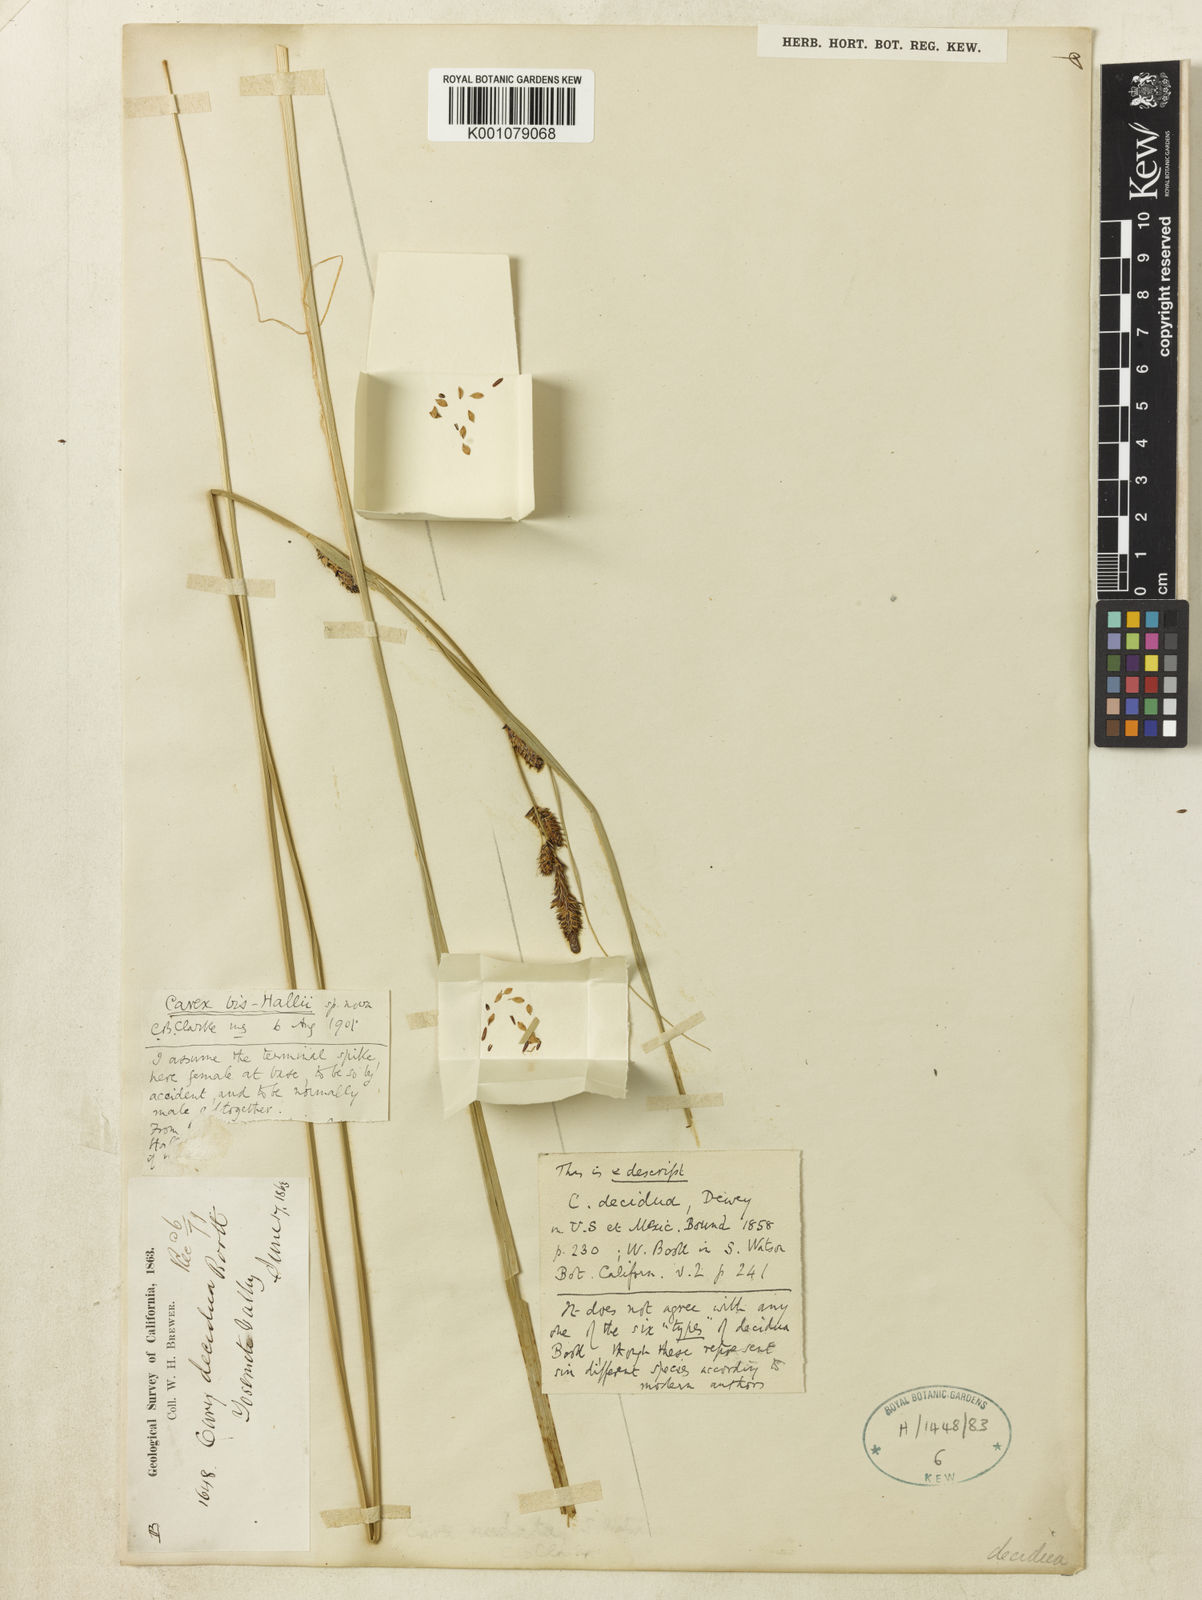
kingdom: Plantae
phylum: Tracheophyta
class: Liliopsida
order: Poales
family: Cyperaceae
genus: Carex
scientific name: Carex senta
